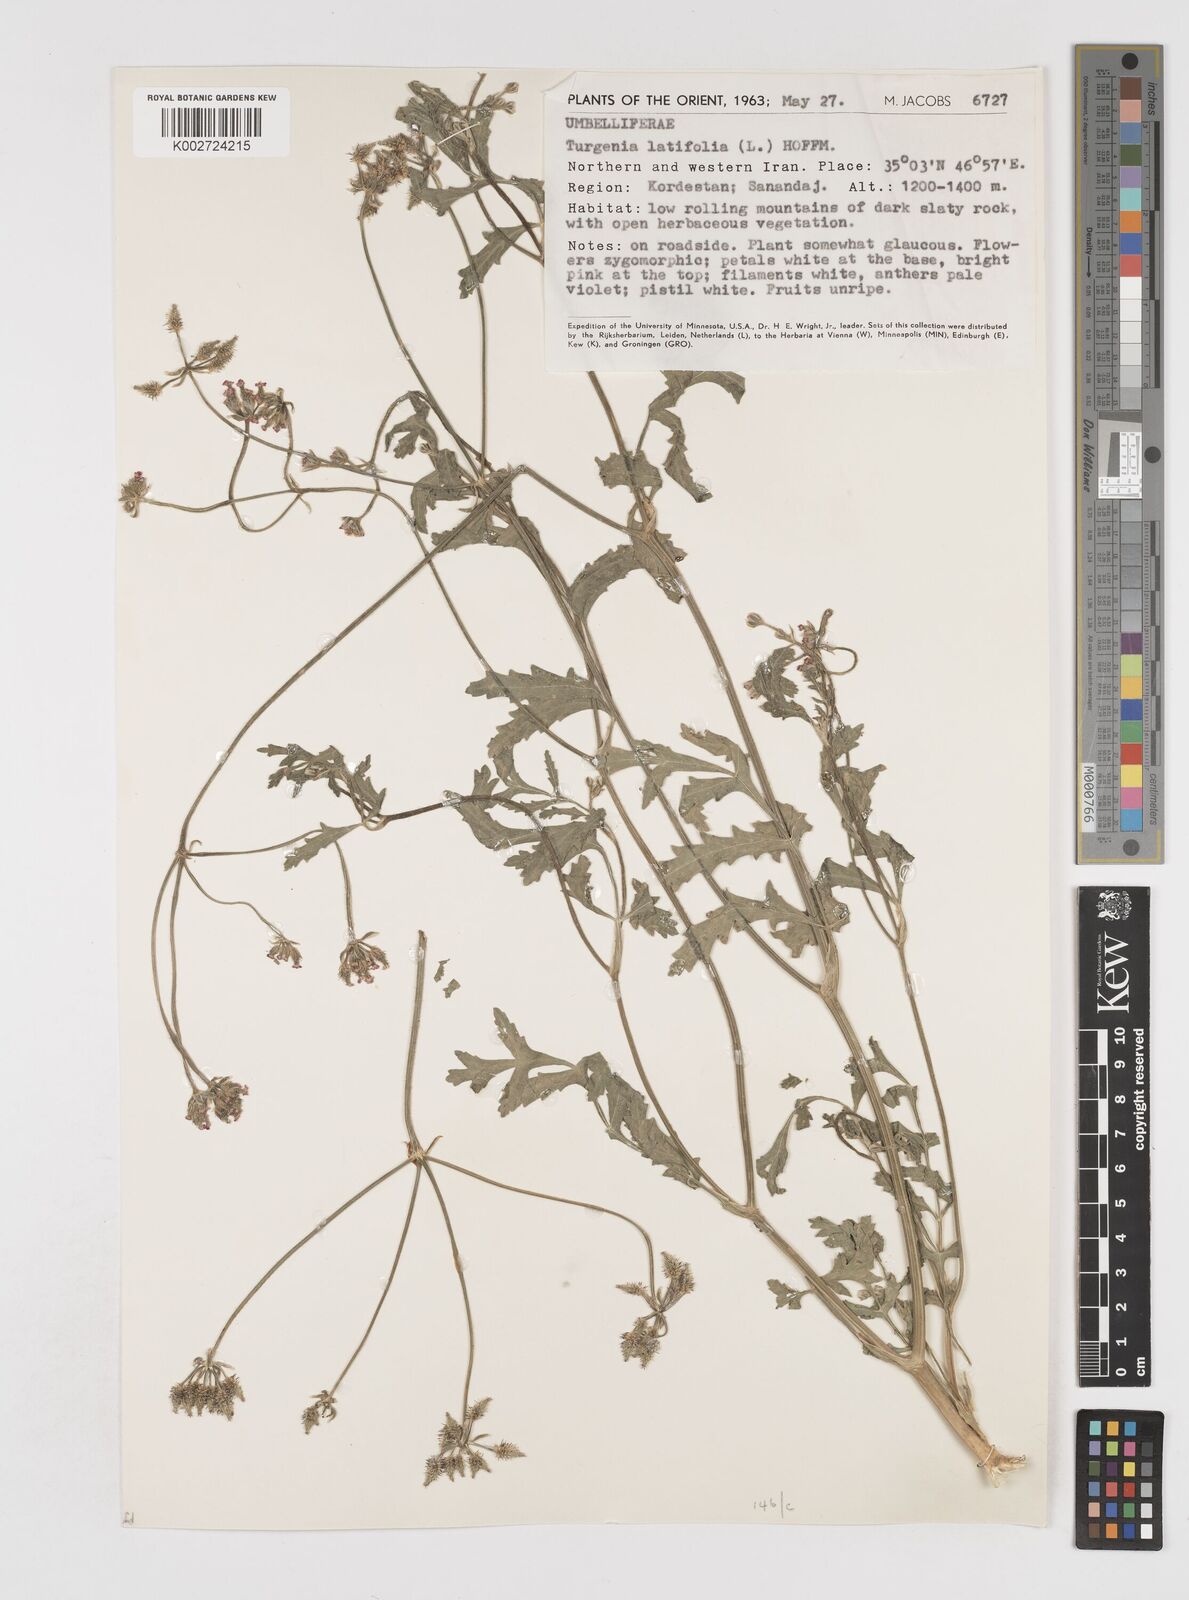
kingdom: Plantae
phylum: Tracheophyta
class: Magnoliopsida
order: Apiales
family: Apiaceae
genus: Turgenia
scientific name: Turgenia latifolia
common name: Greater bur-parsley
